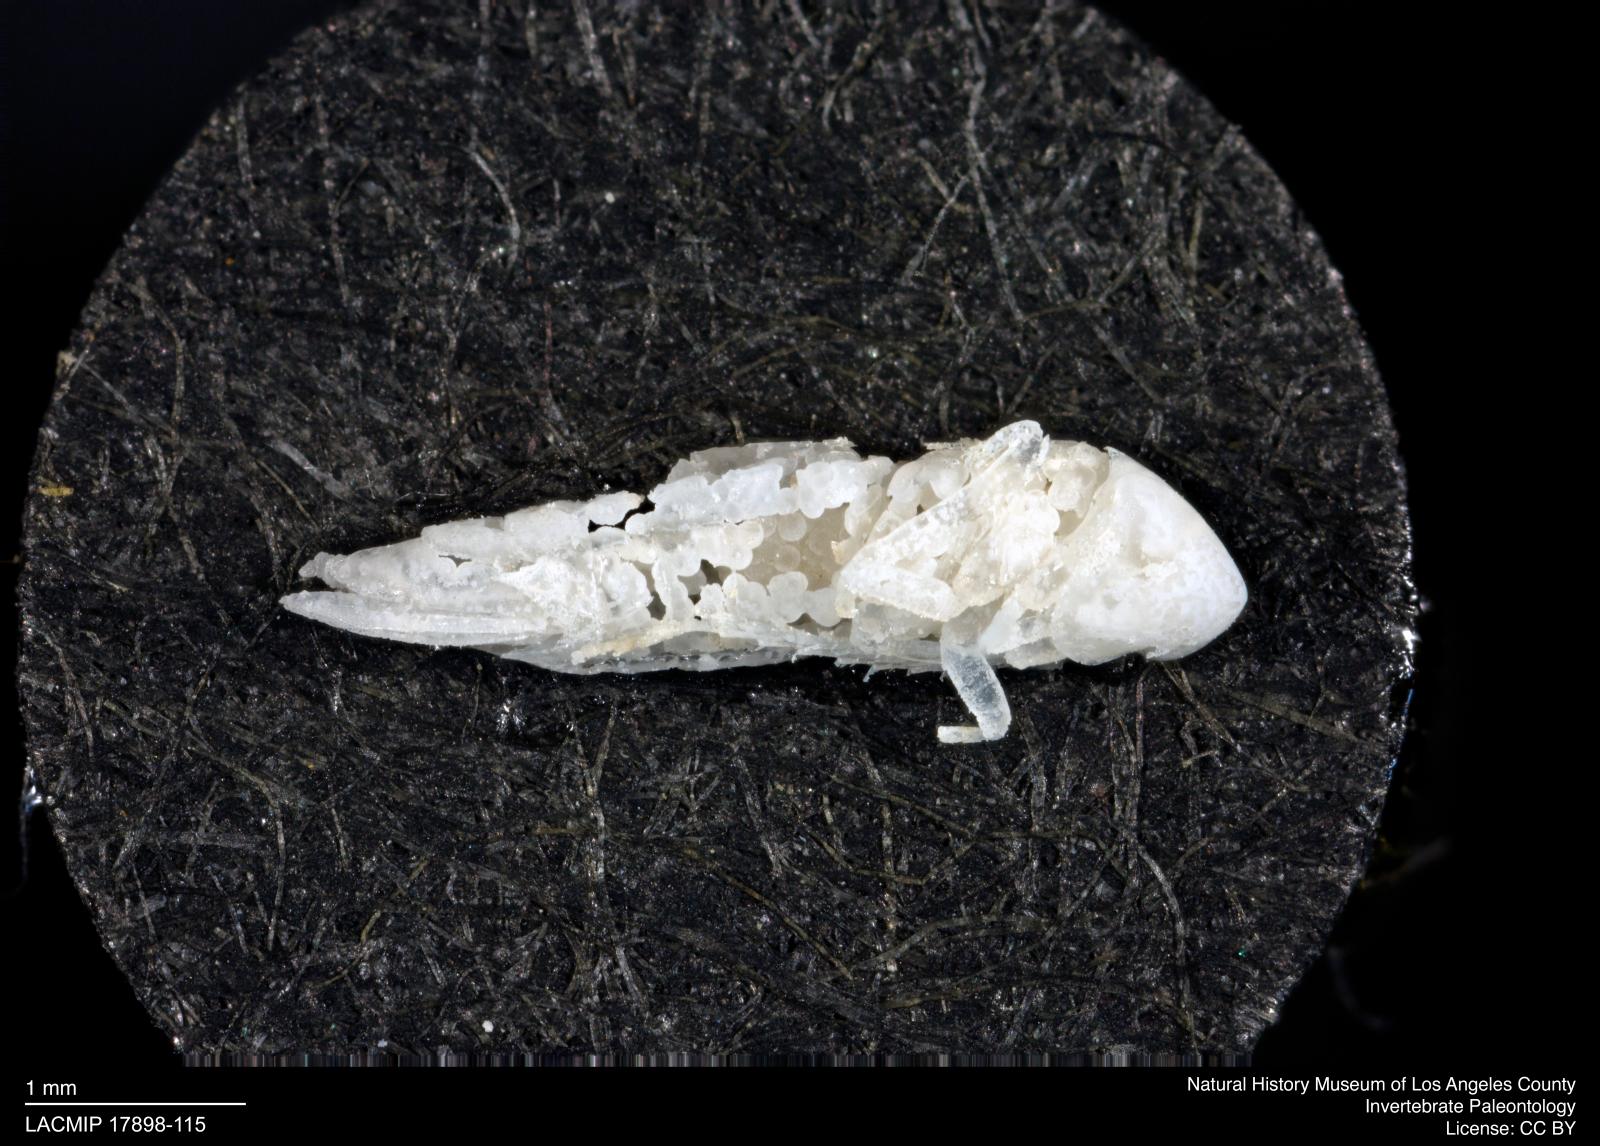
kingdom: Animalia
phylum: Arthropoda
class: Insecta
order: Hemiptera
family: Cicadellidae
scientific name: Cicadellidae
